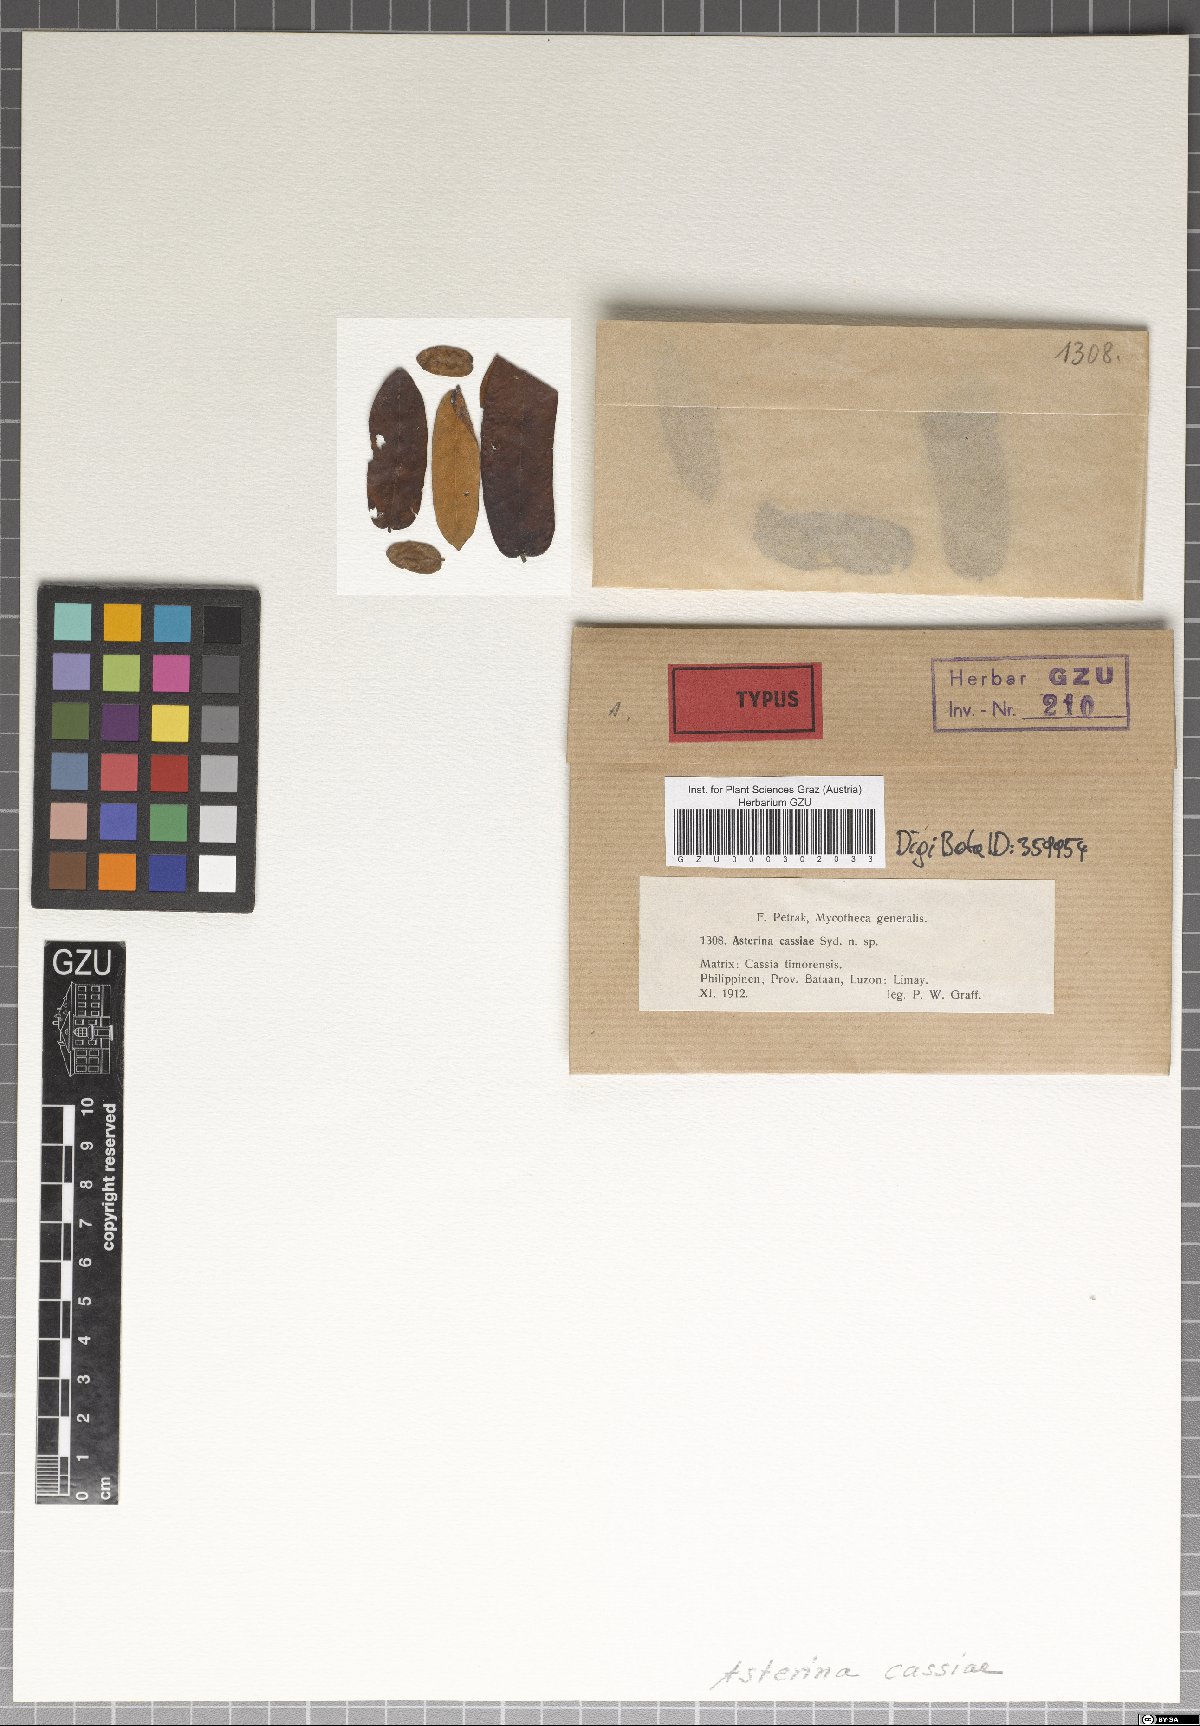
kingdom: Fungi
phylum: Ascomycota
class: Dothideomycetes
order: Asterinales
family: Asterinaceae
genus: Asterina
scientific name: Asterina cassiae
